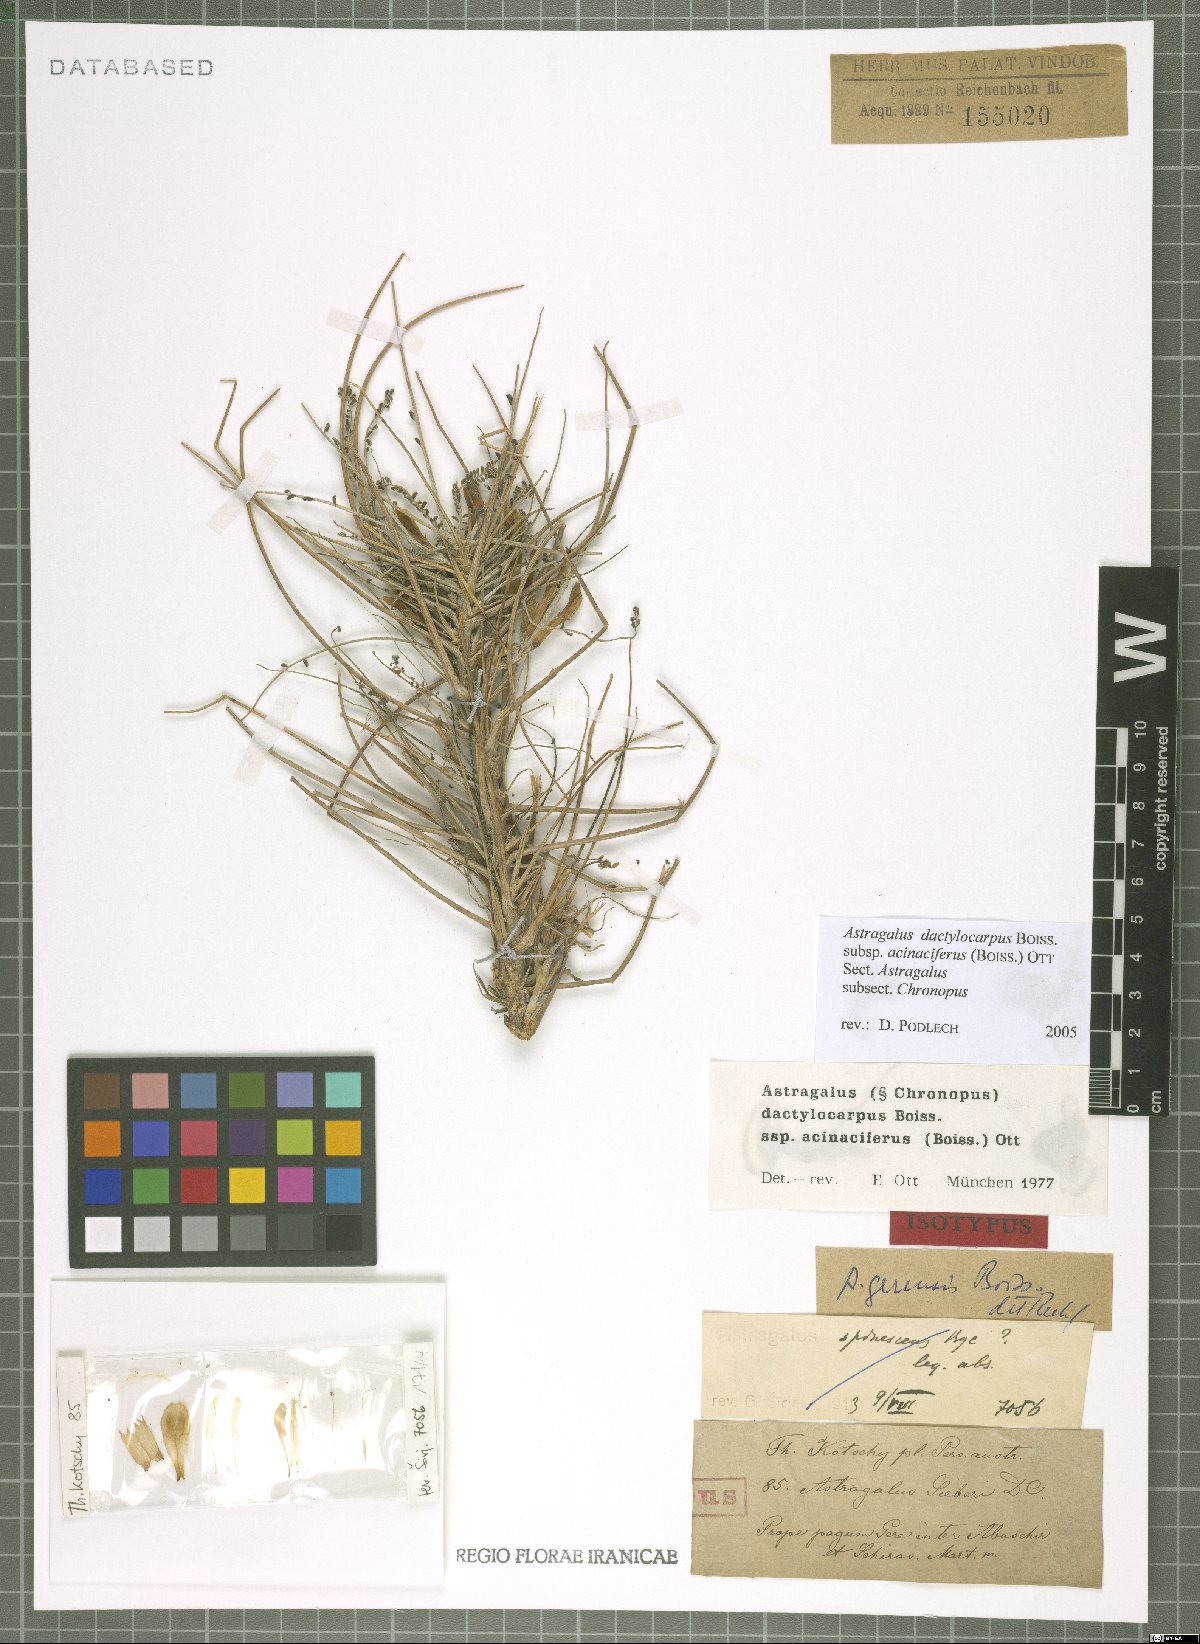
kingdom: Plantae
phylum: Tracheophyta
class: Magnoliopsida
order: Fabales
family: Fabaceae
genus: Astragalus
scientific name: Astragalus dactylocarpus
